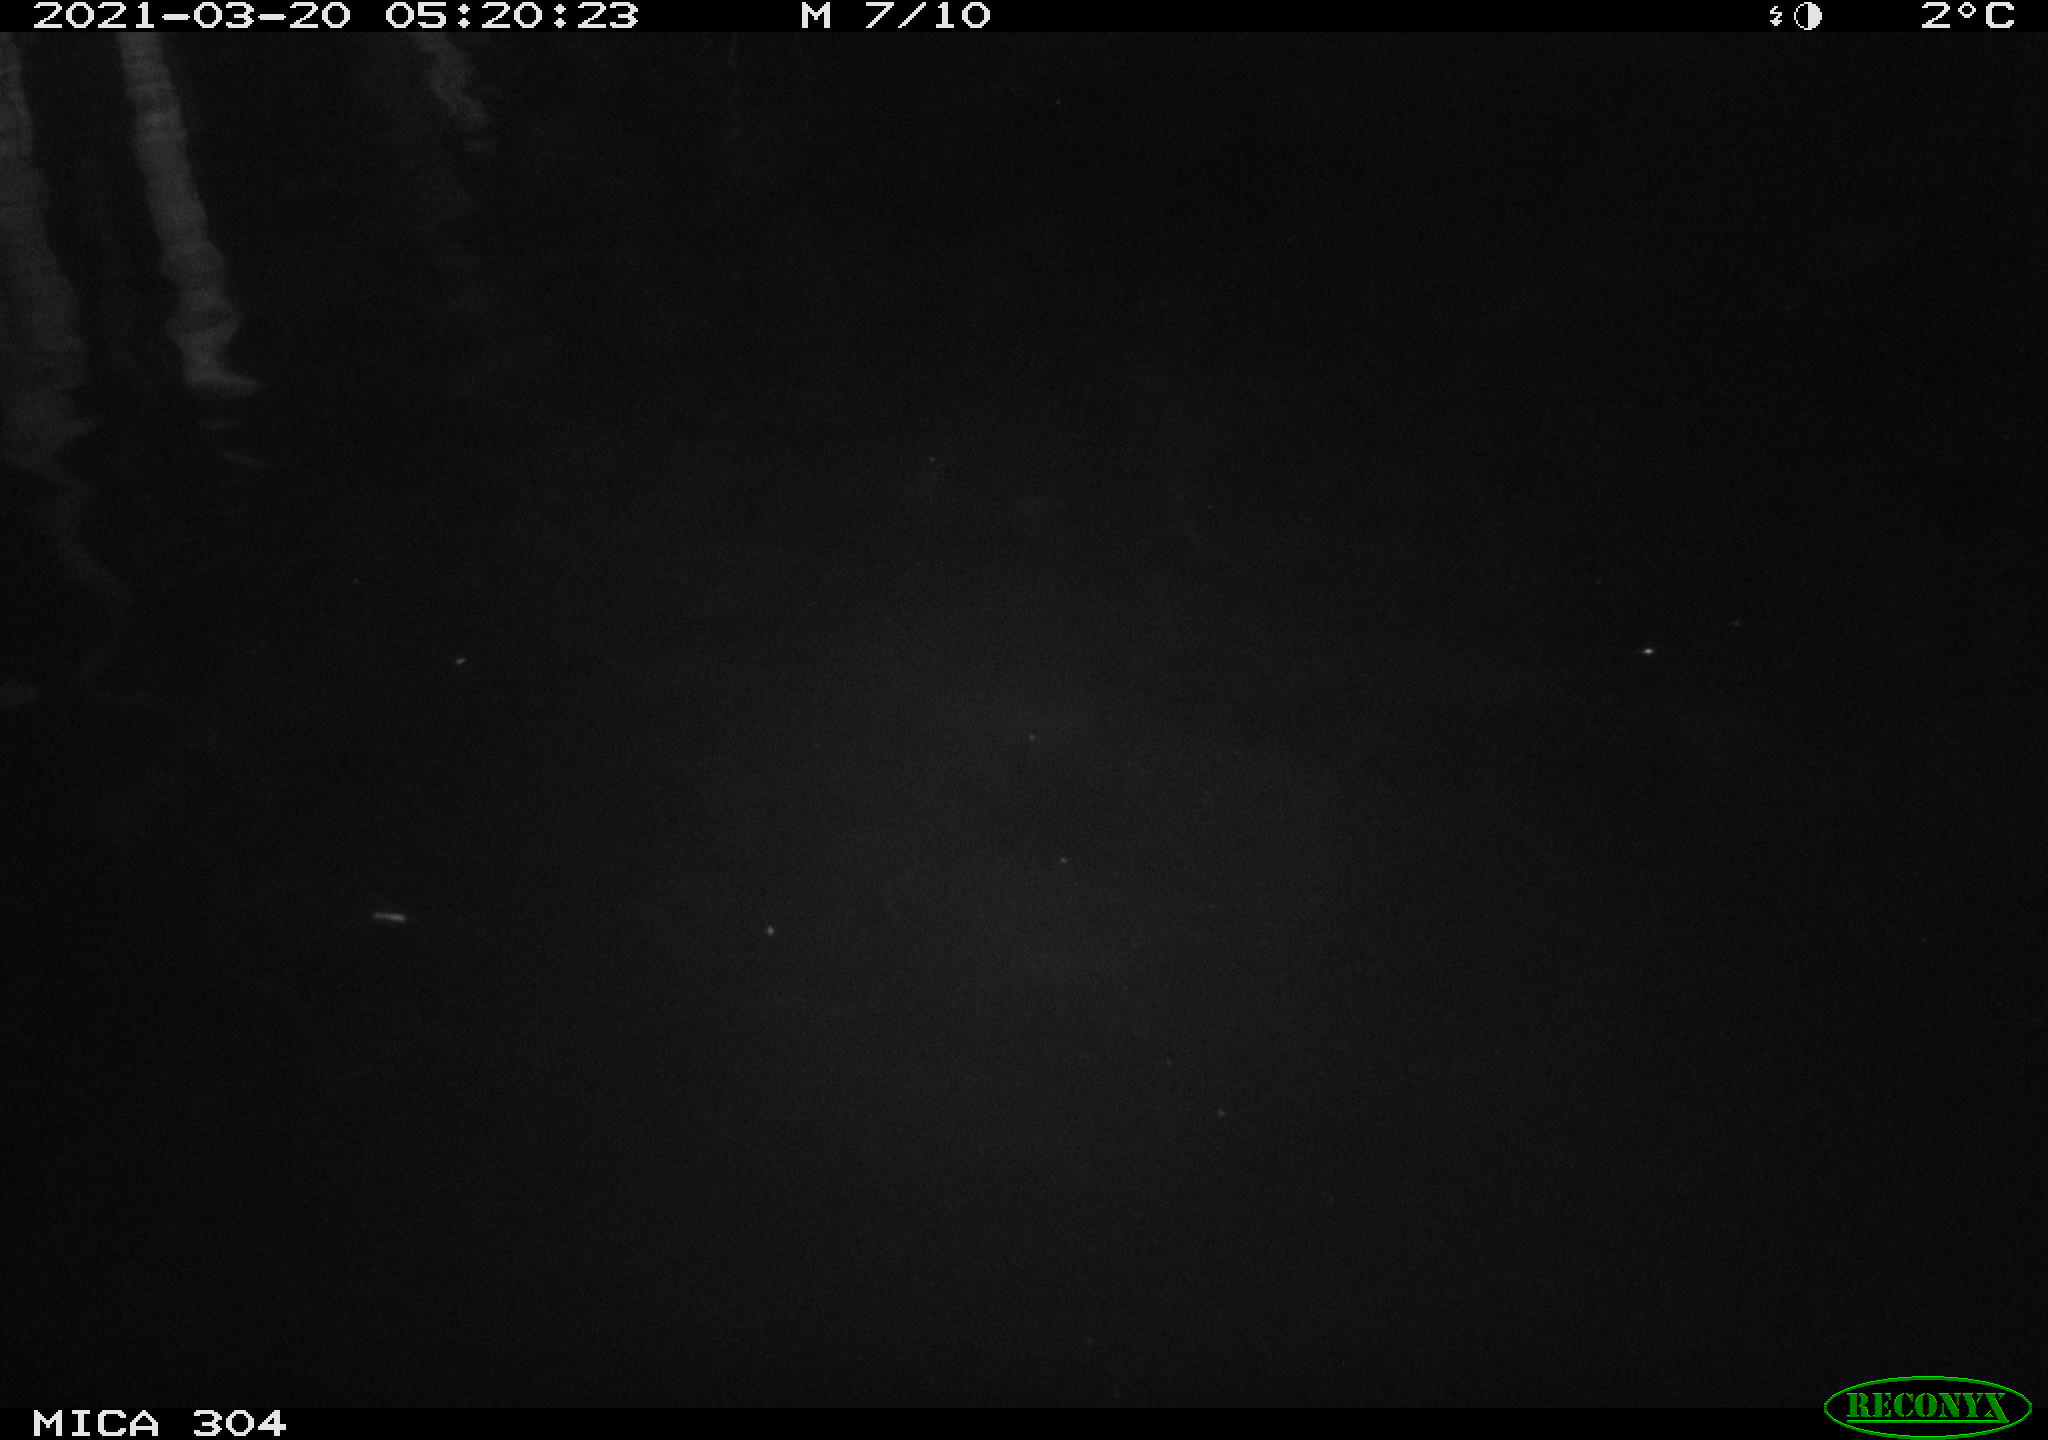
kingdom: Animalia
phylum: Chordata
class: Aves
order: Anseriformes
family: Anatidae
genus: Anas
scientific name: Anas platyrhynchos
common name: Mallard
